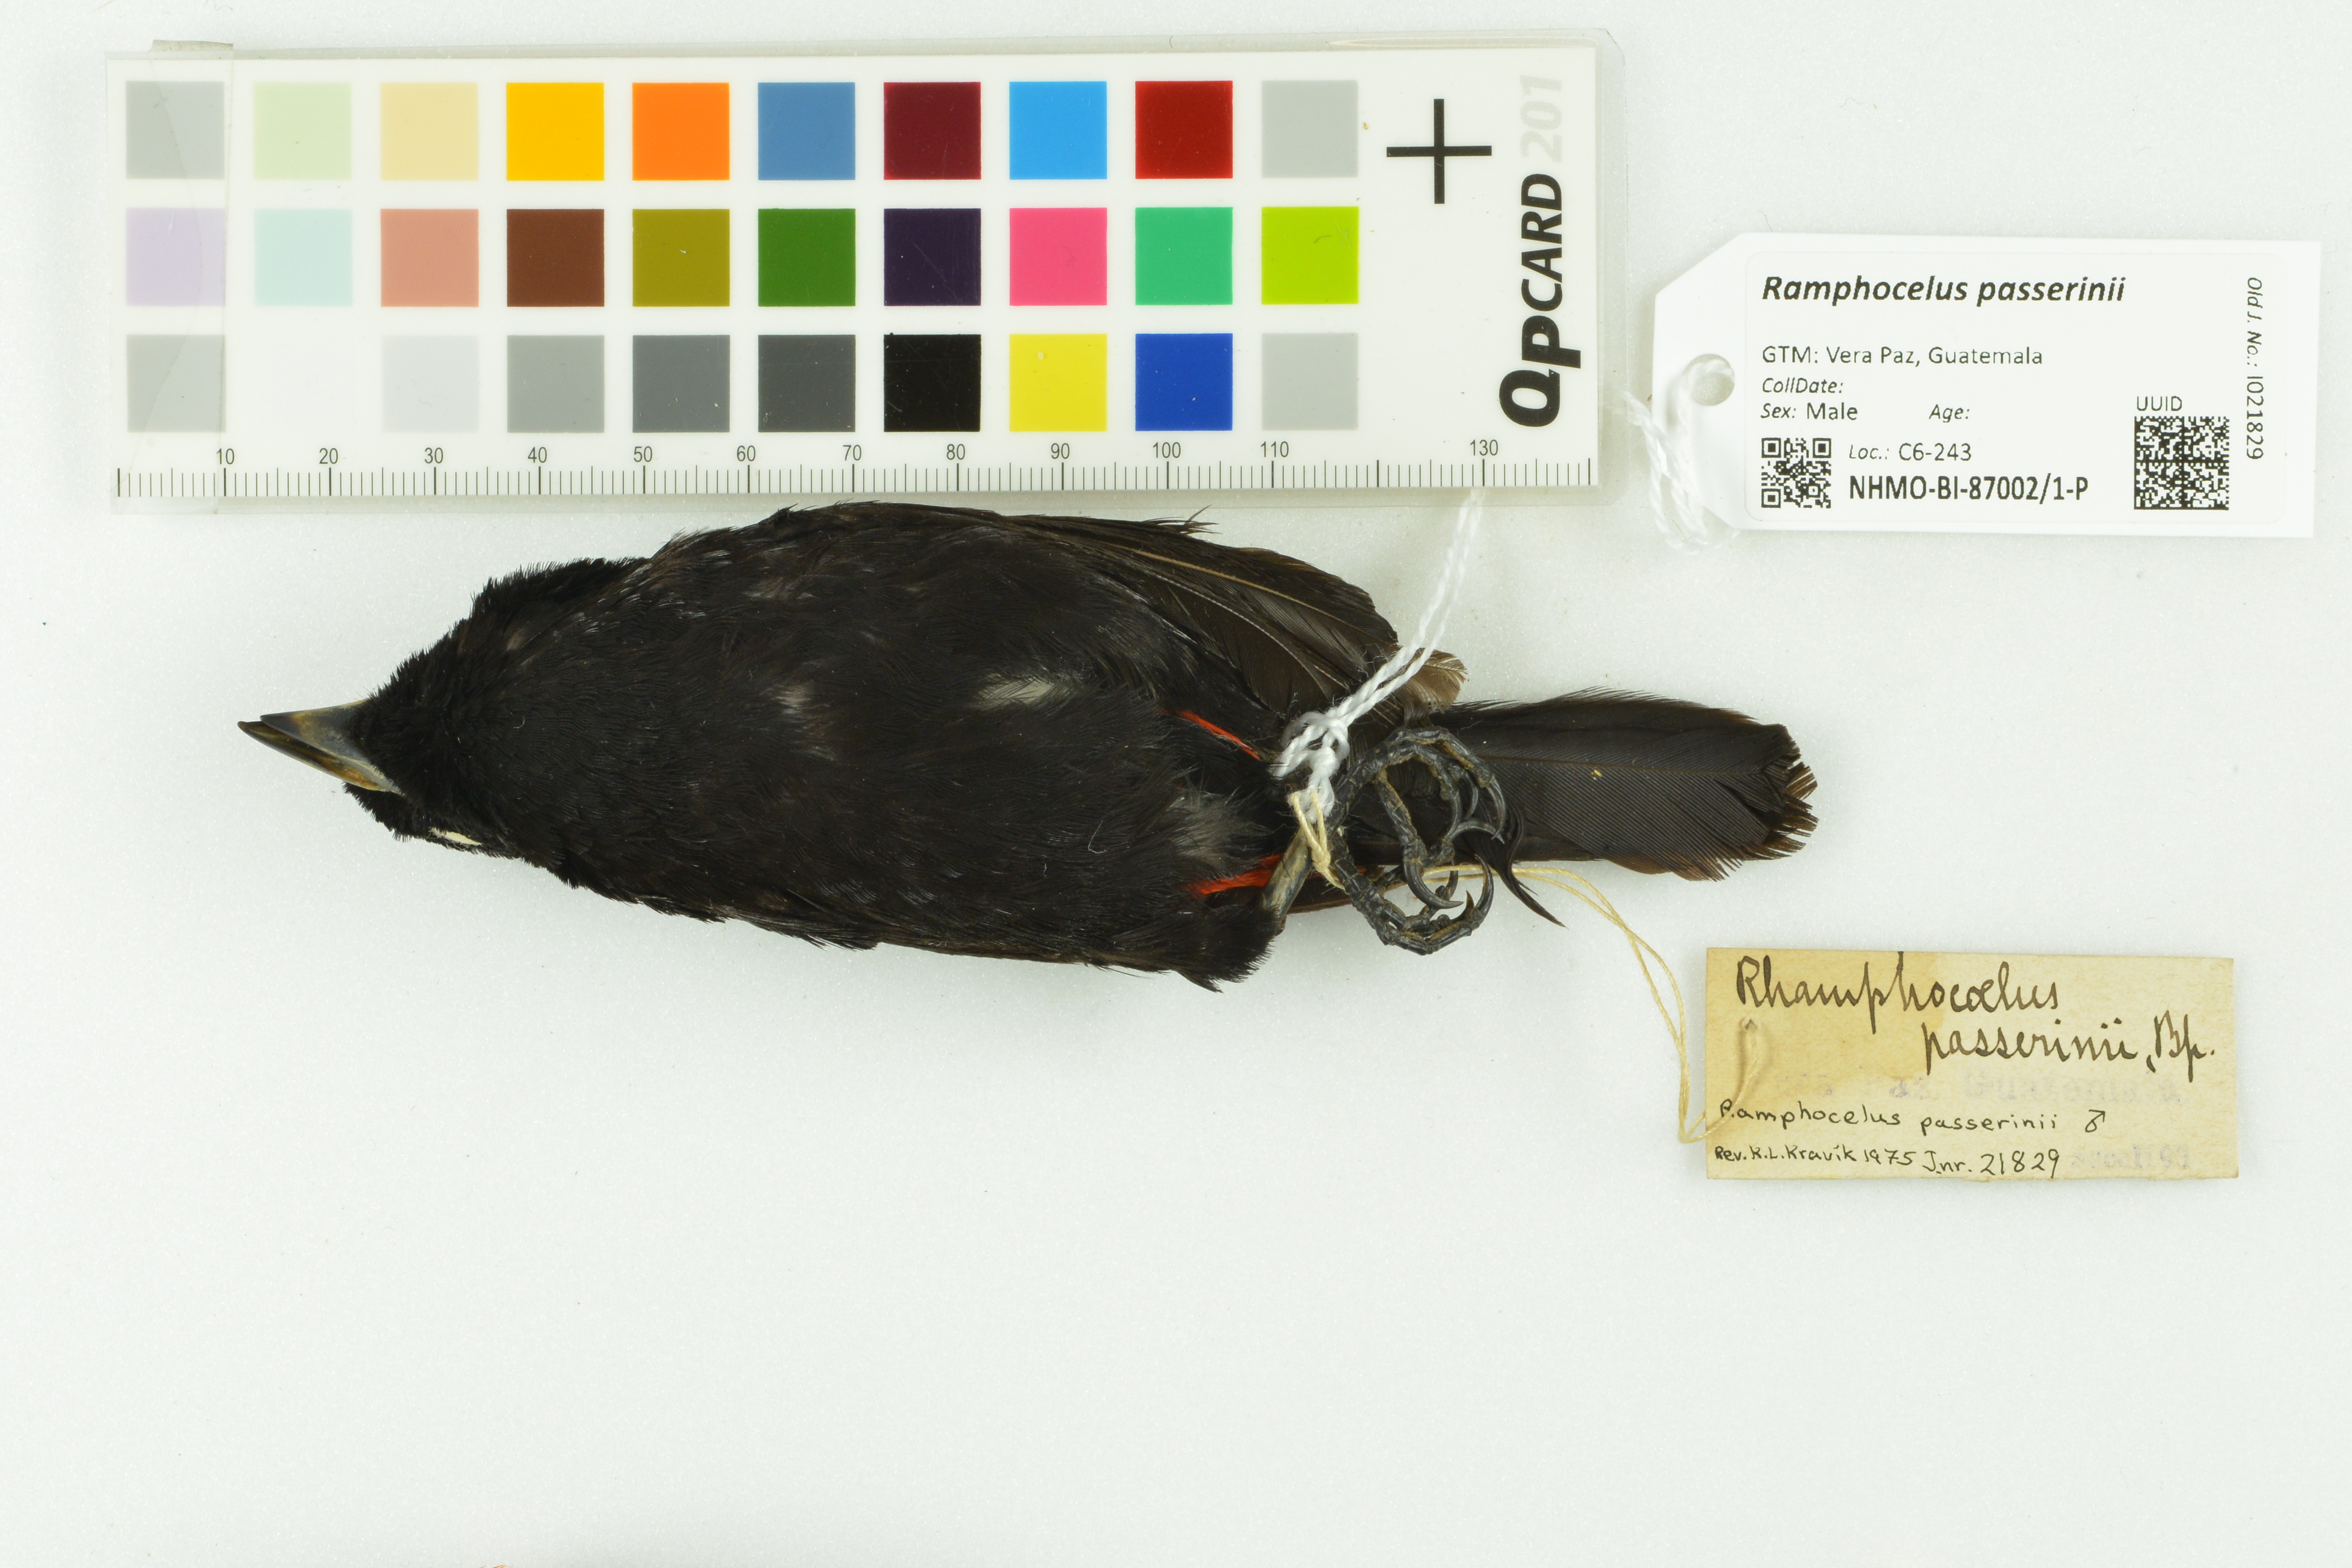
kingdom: Animalia
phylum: Chordata
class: Aves
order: Passeriformes
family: Thraupidae
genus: Ramphocelus
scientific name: Ramphocelus passerinii
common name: Passerini's tanager
